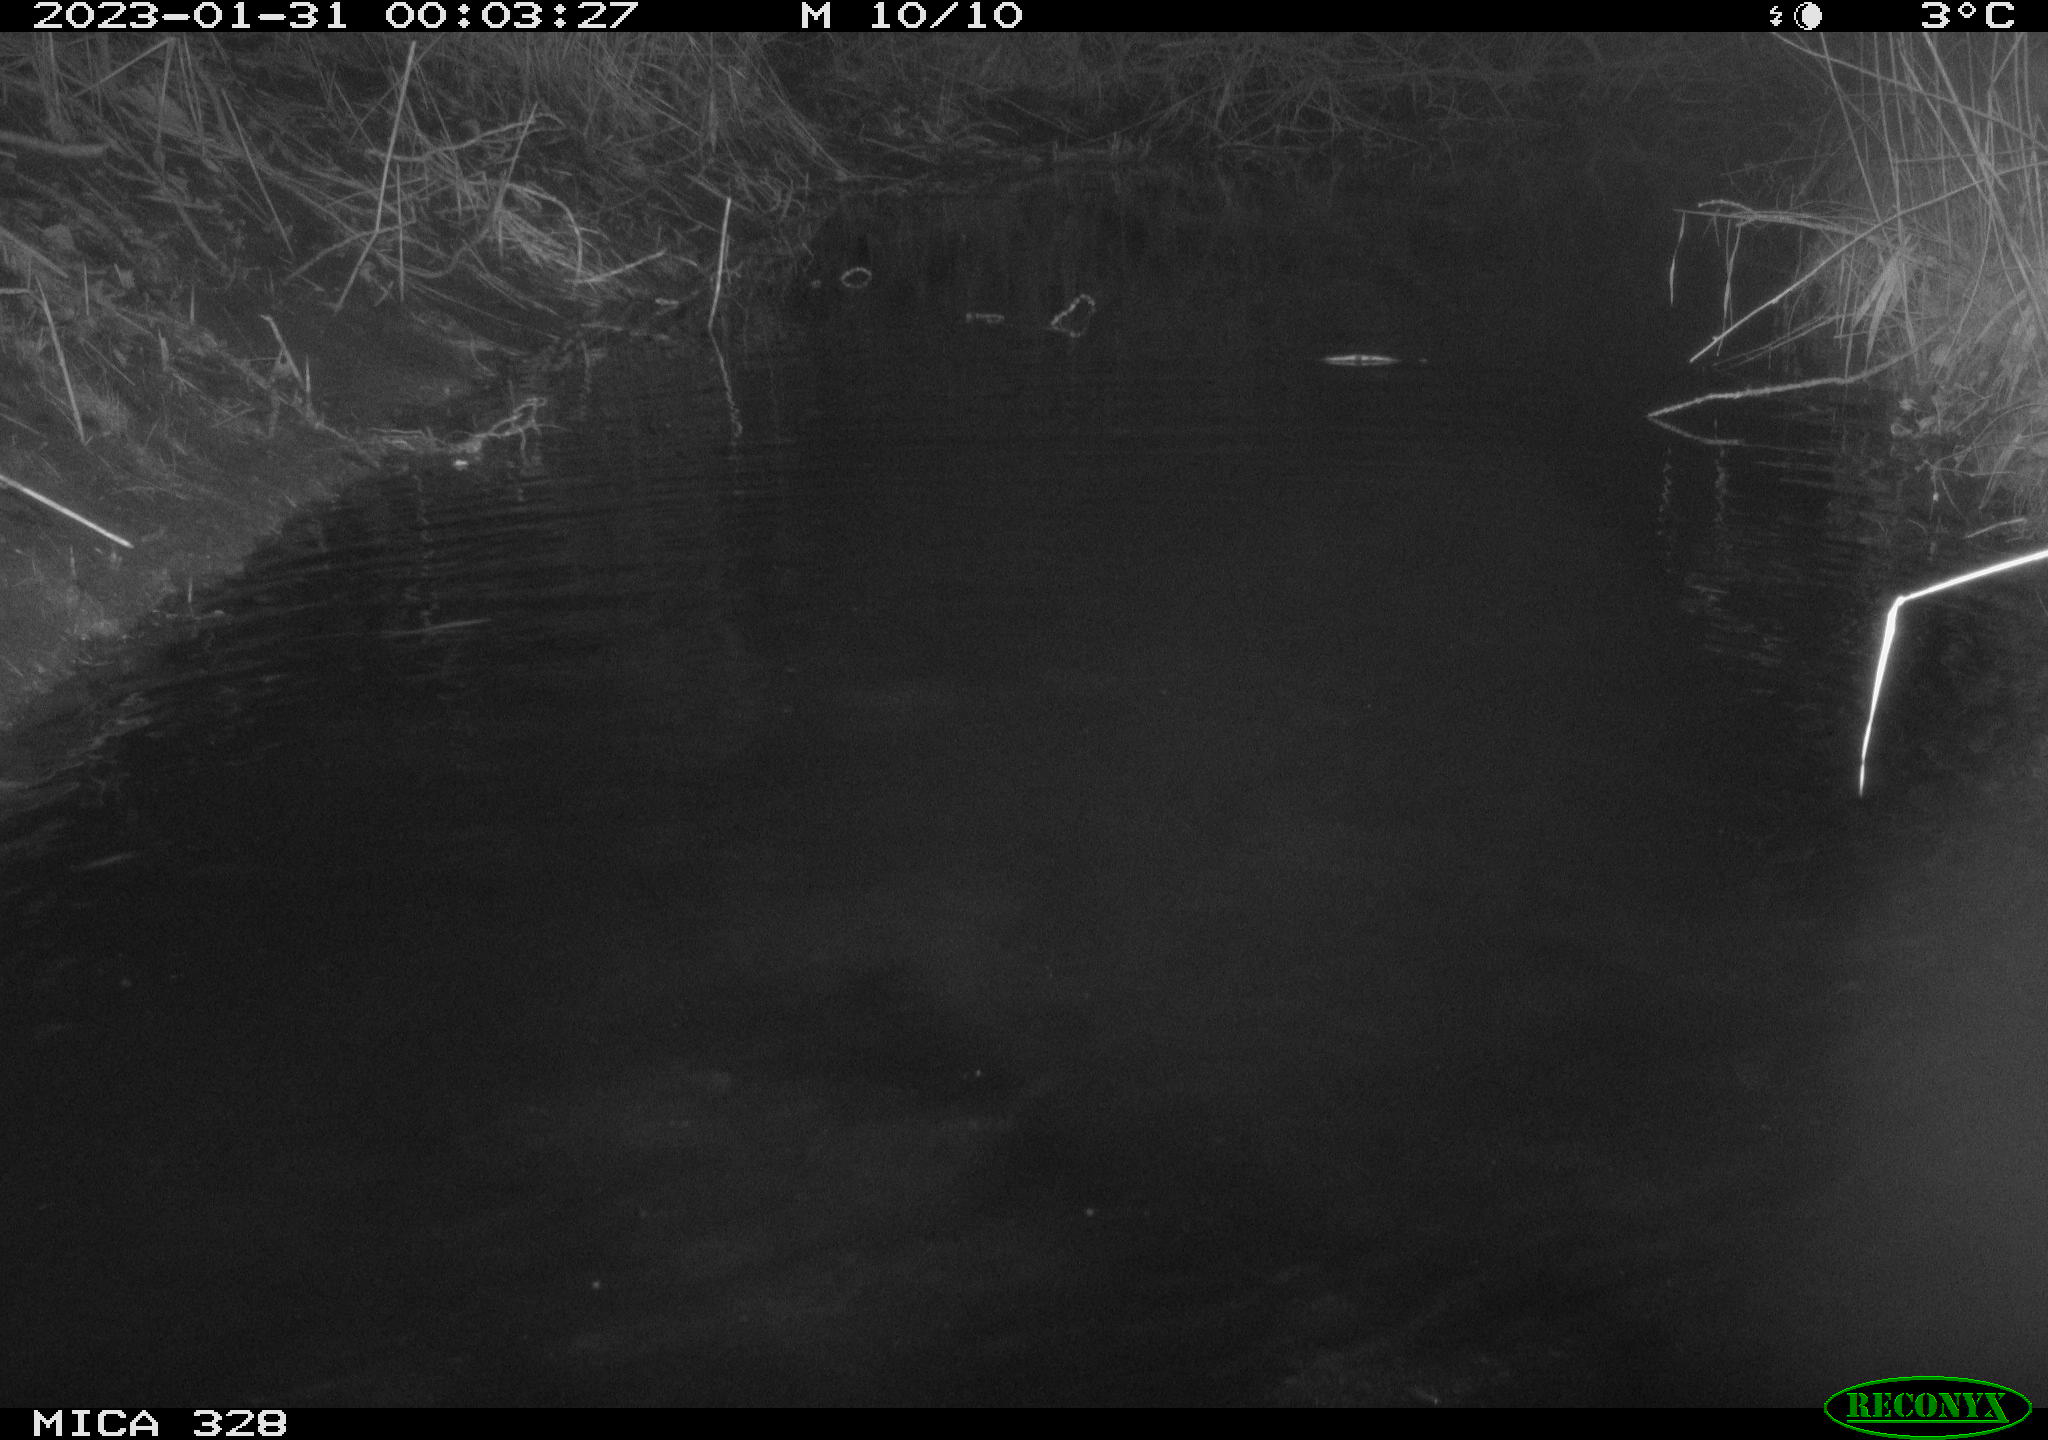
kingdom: Animalia
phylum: Chordata
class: Aves
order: Anseriformes
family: Anatidae
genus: Anas
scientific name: Anas
